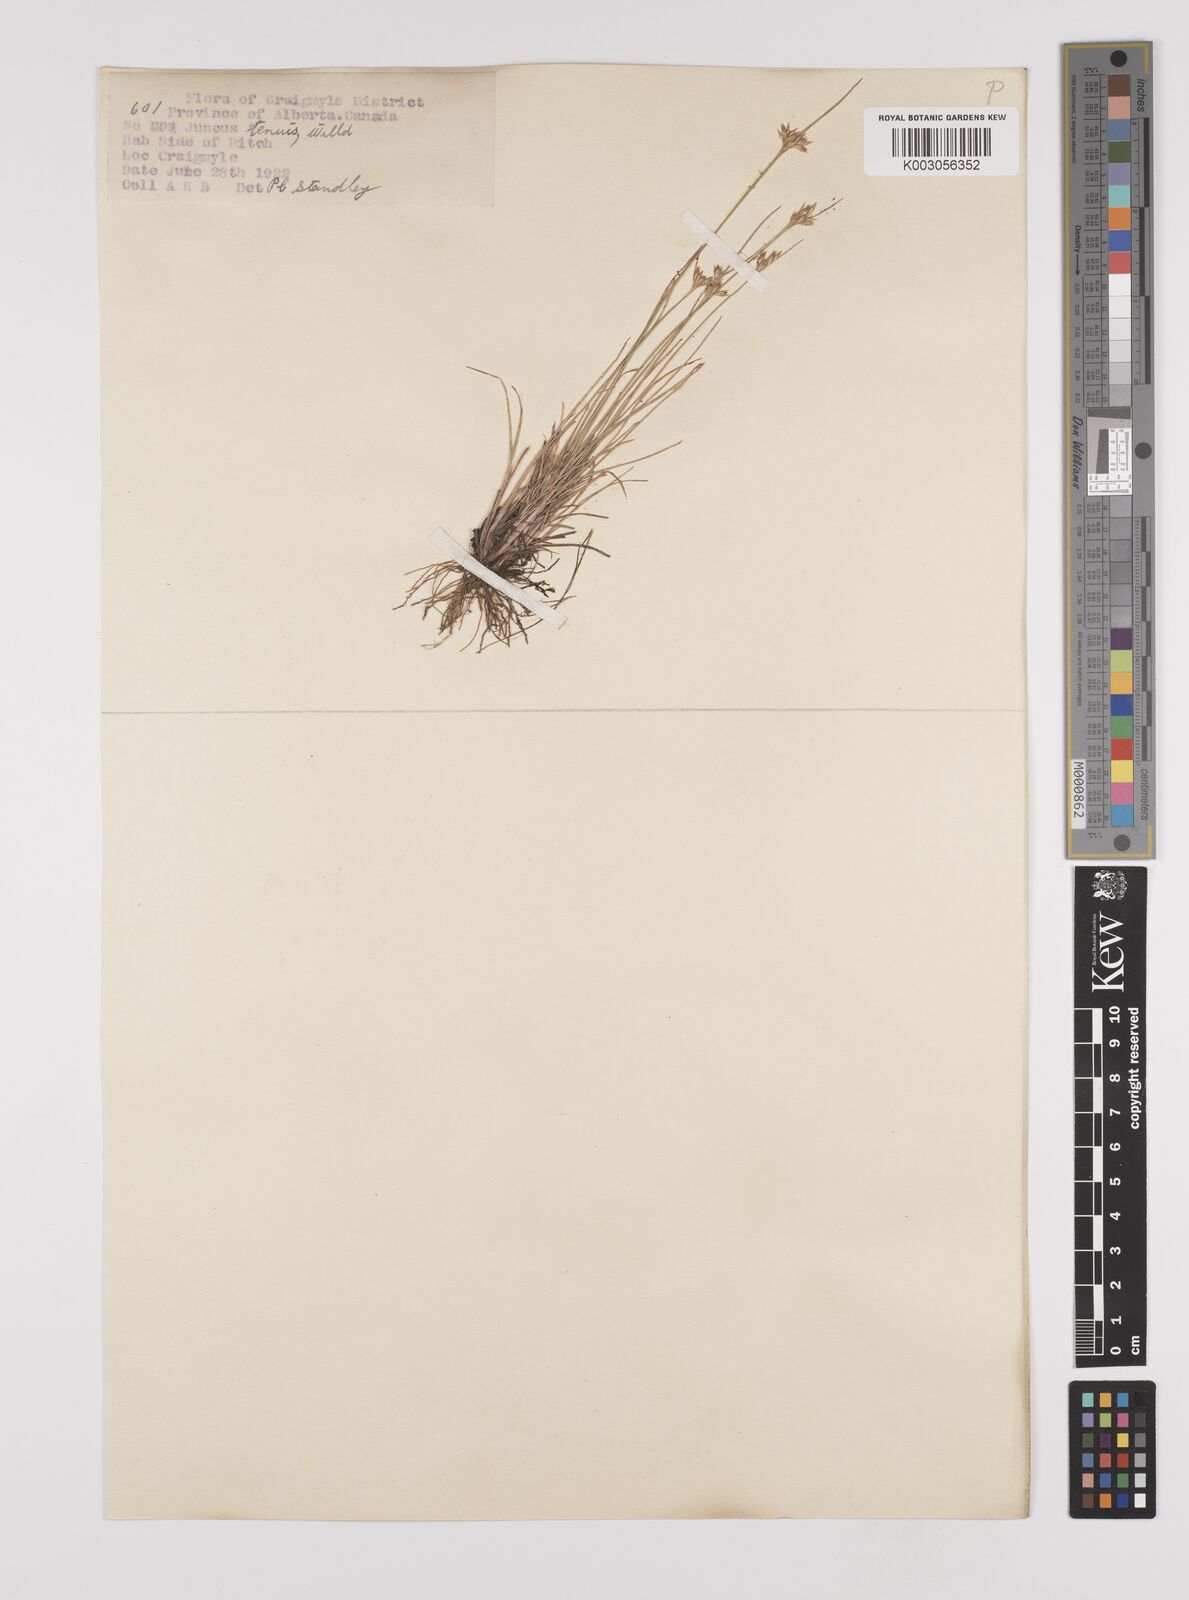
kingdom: Plantae
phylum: Tracheophyta
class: Liliopsida
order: Poales
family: Juncaceae
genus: Juncus
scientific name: Juncus tenuis
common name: Slender rush
